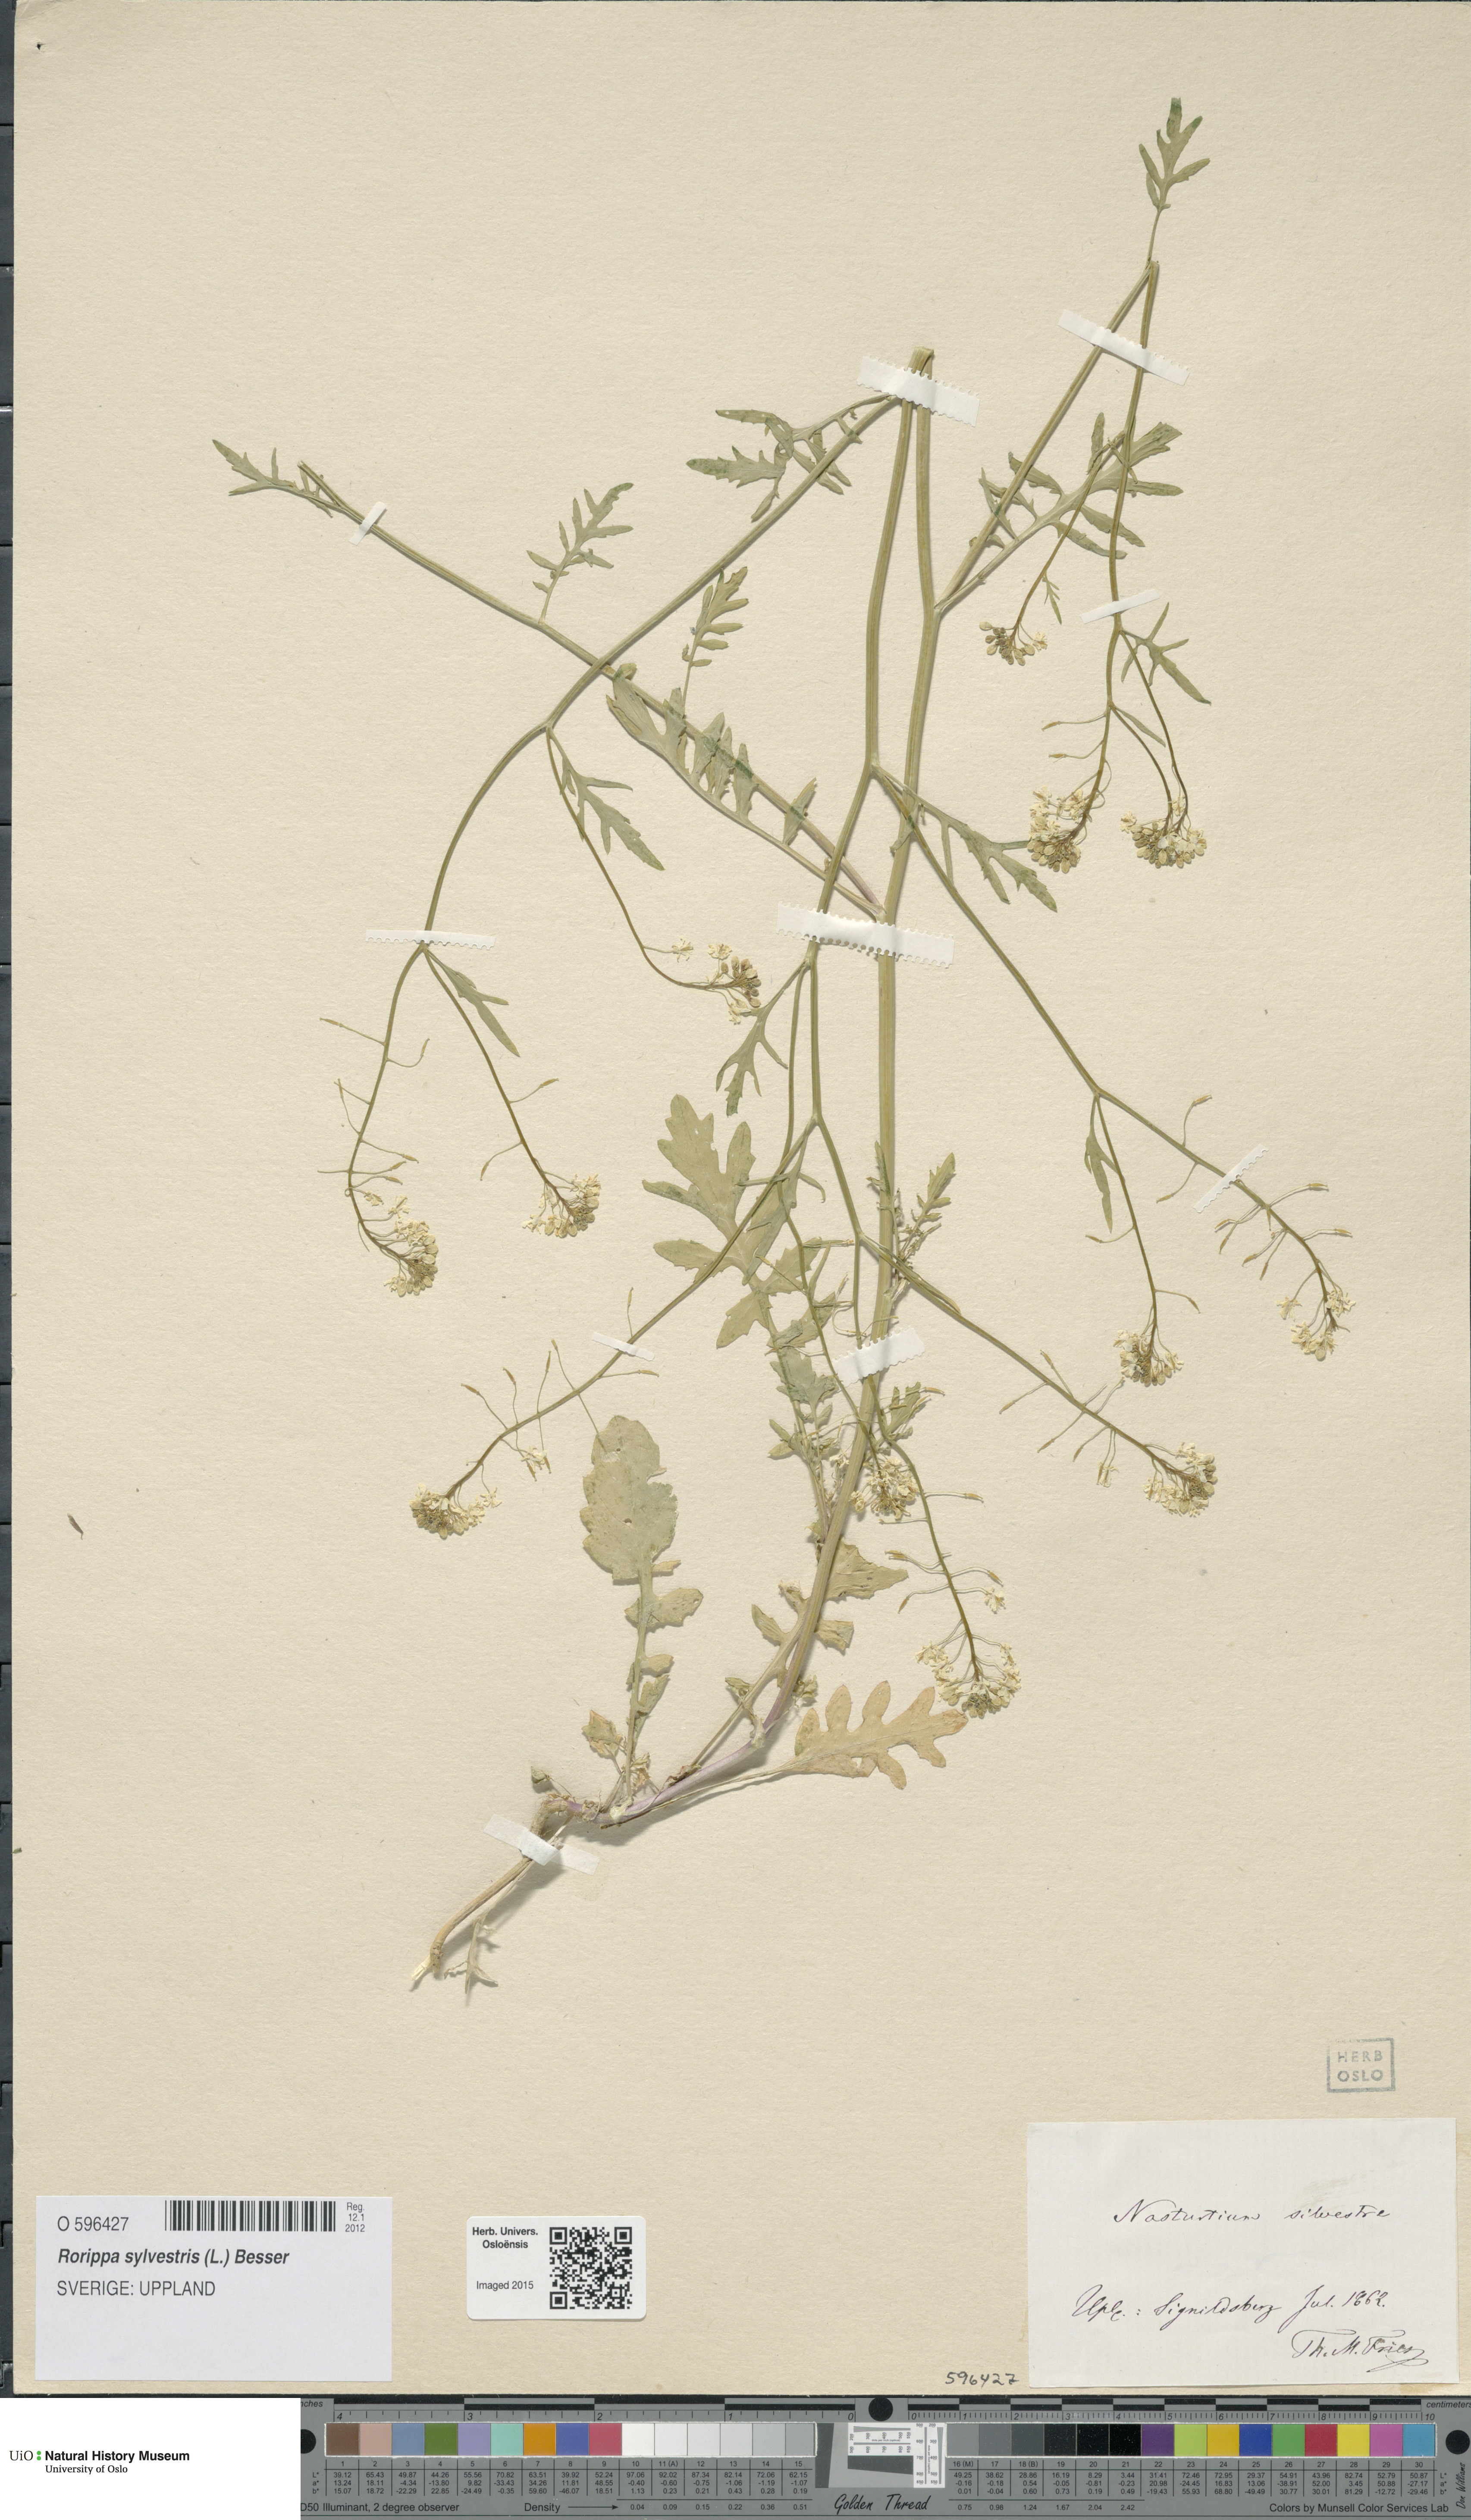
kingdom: Plantae
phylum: Tracheophyta
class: Magnoliopsida
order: Brassicales
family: Brassicaceae
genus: Rorippa
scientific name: Rorippa sylvestris
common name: Creeping yellowcress
